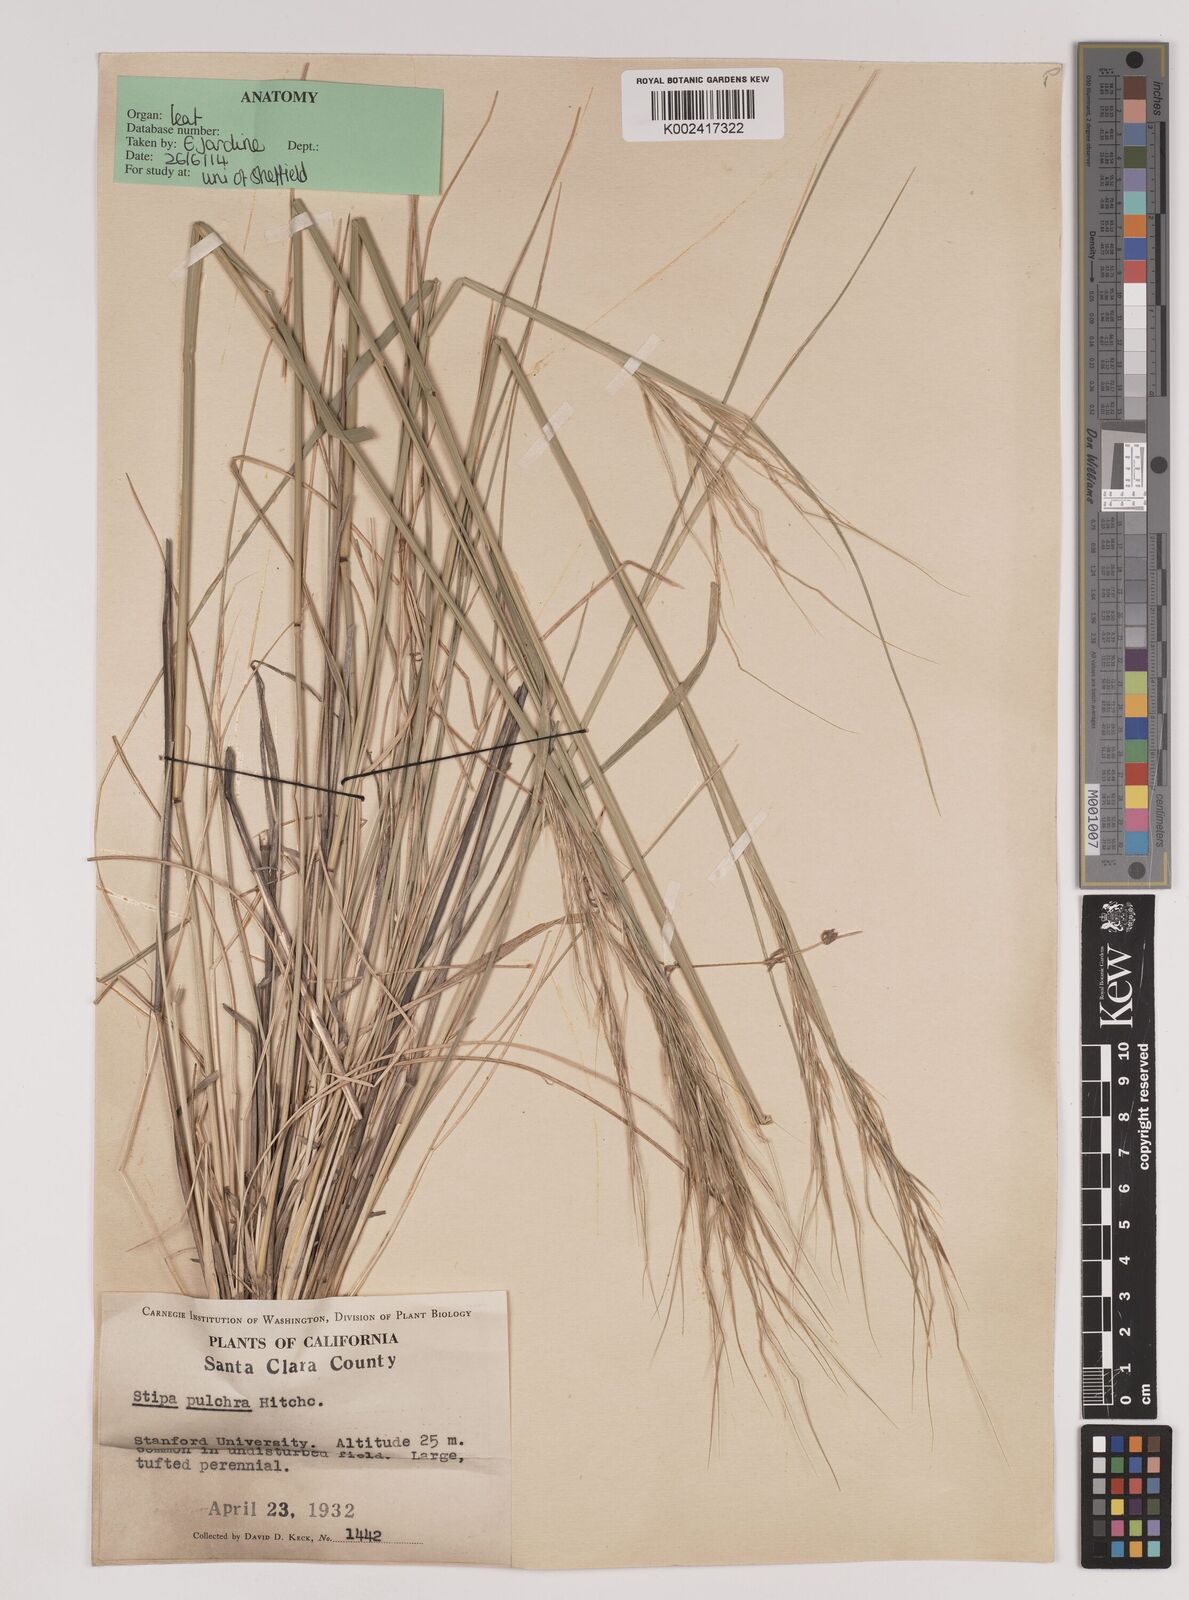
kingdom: Plantae
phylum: Tracheophyta
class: Liliopsida
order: Poales
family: Poaceae
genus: Nassella
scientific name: Nassella pulchra
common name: Purple needlegrass
